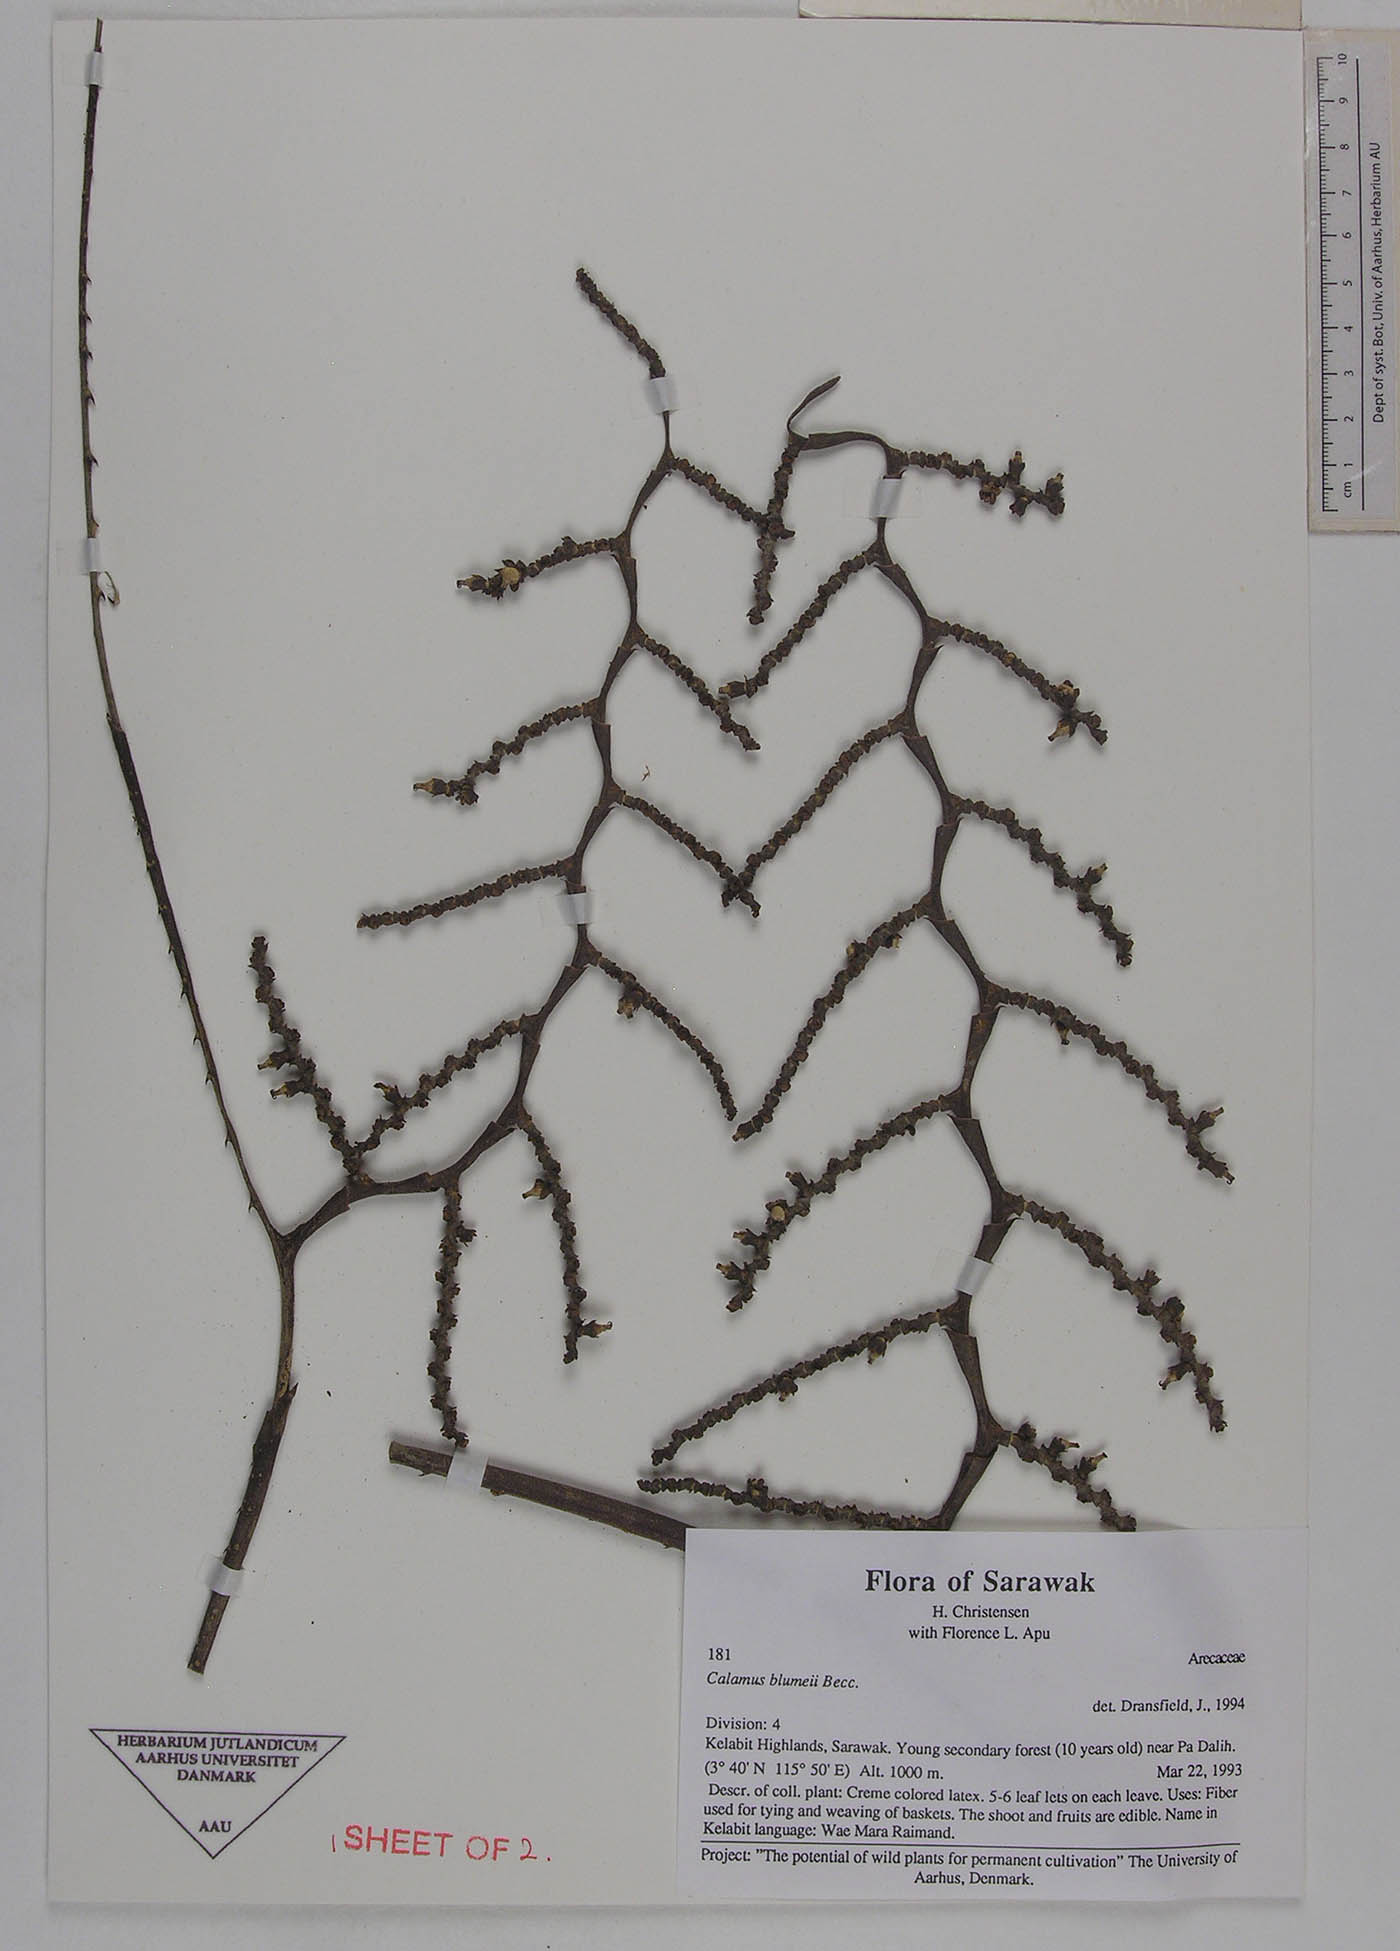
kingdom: Plantae
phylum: Tracheophyta
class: Liliopsida
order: Arecales
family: Arecaceae
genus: Calamus
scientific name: Calamus rhomboideus
